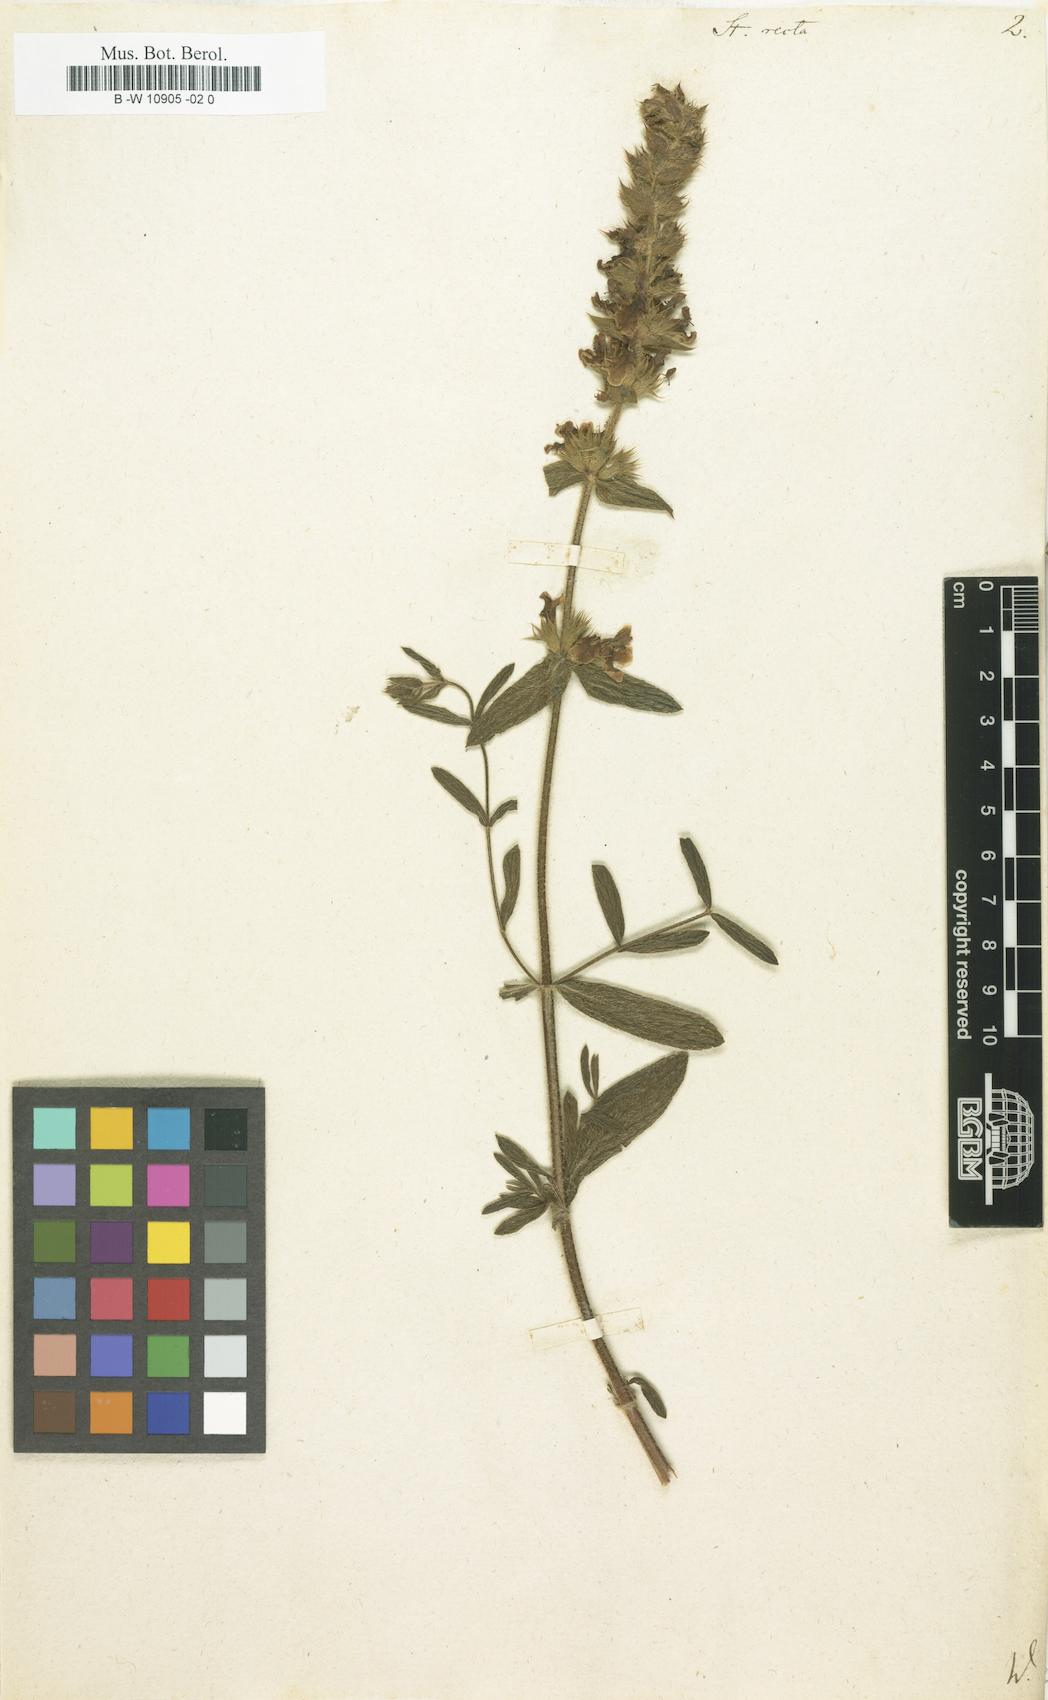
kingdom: Plantae
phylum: Tracheophyta
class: Magnoliopsida
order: Lamiales
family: Lamiaceae
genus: Stachys
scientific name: Stachys recta
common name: Perennial yellow-woundwort
